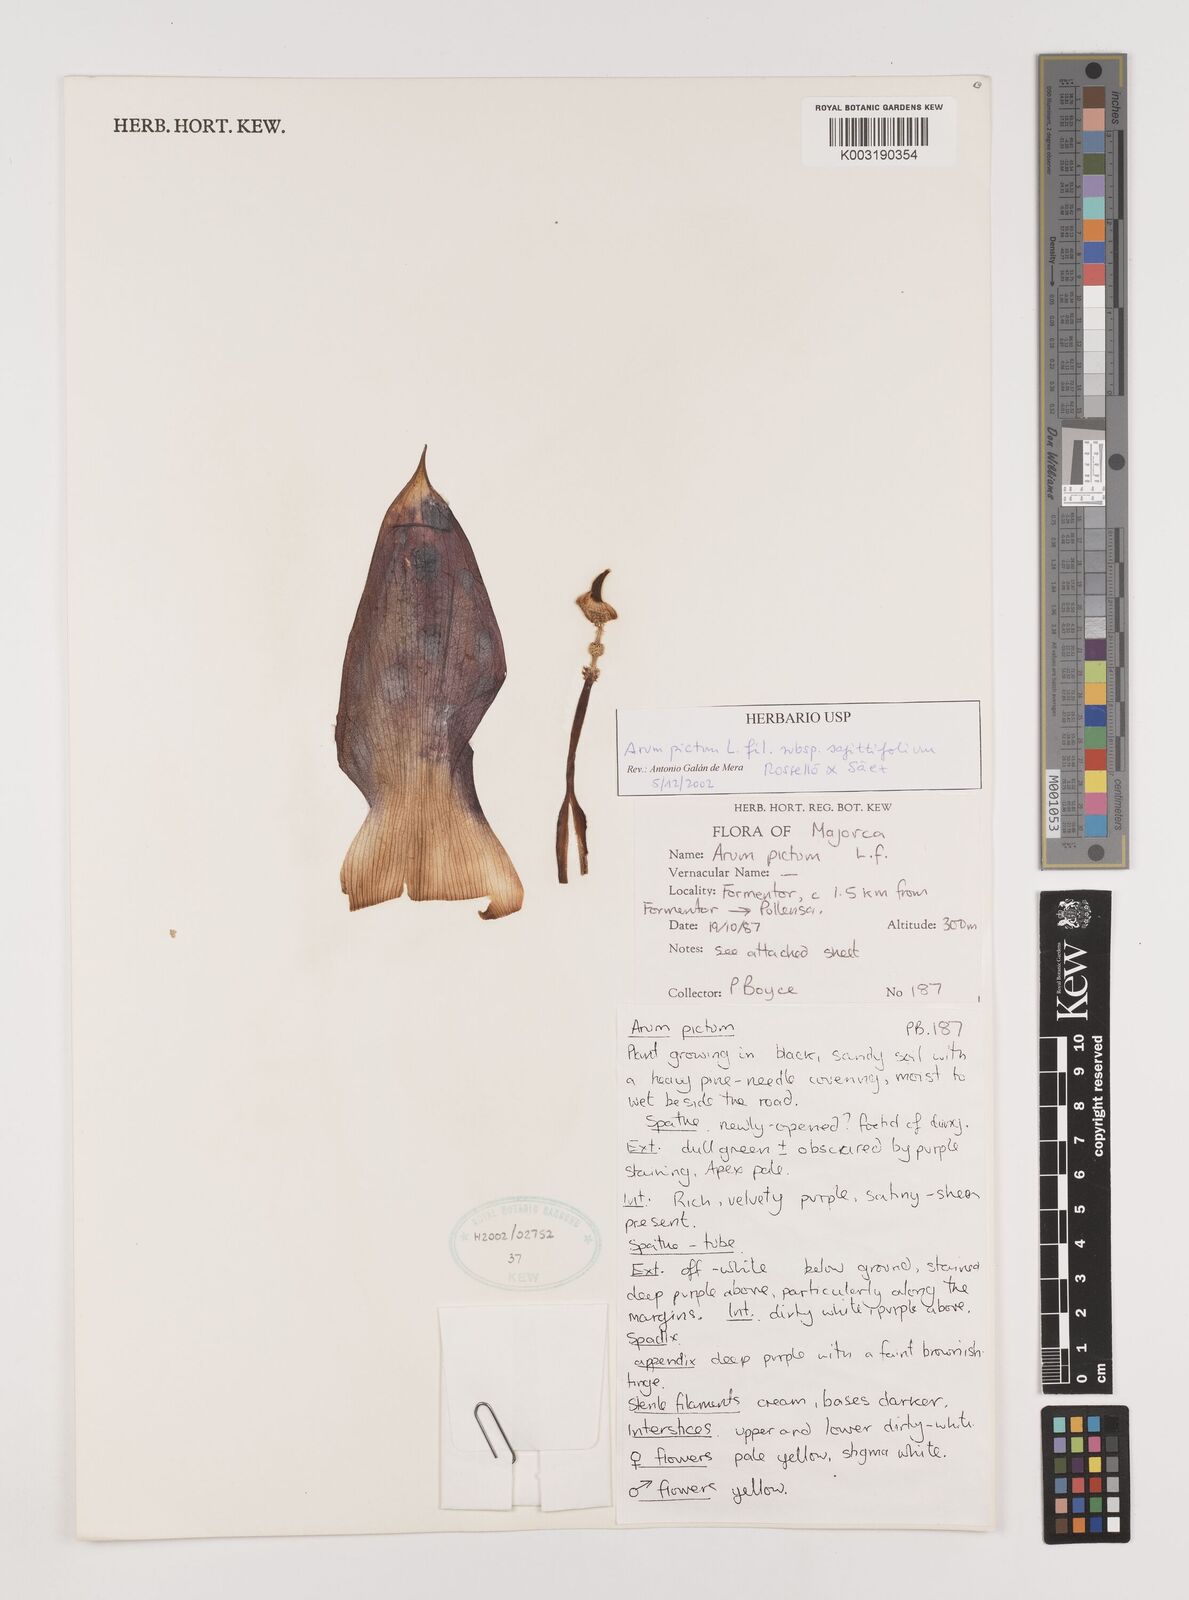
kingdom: Plantae
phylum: Tracheophyta
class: Liliopsida
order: Alismatales
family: Araceae
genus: Arum
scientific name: Arum
